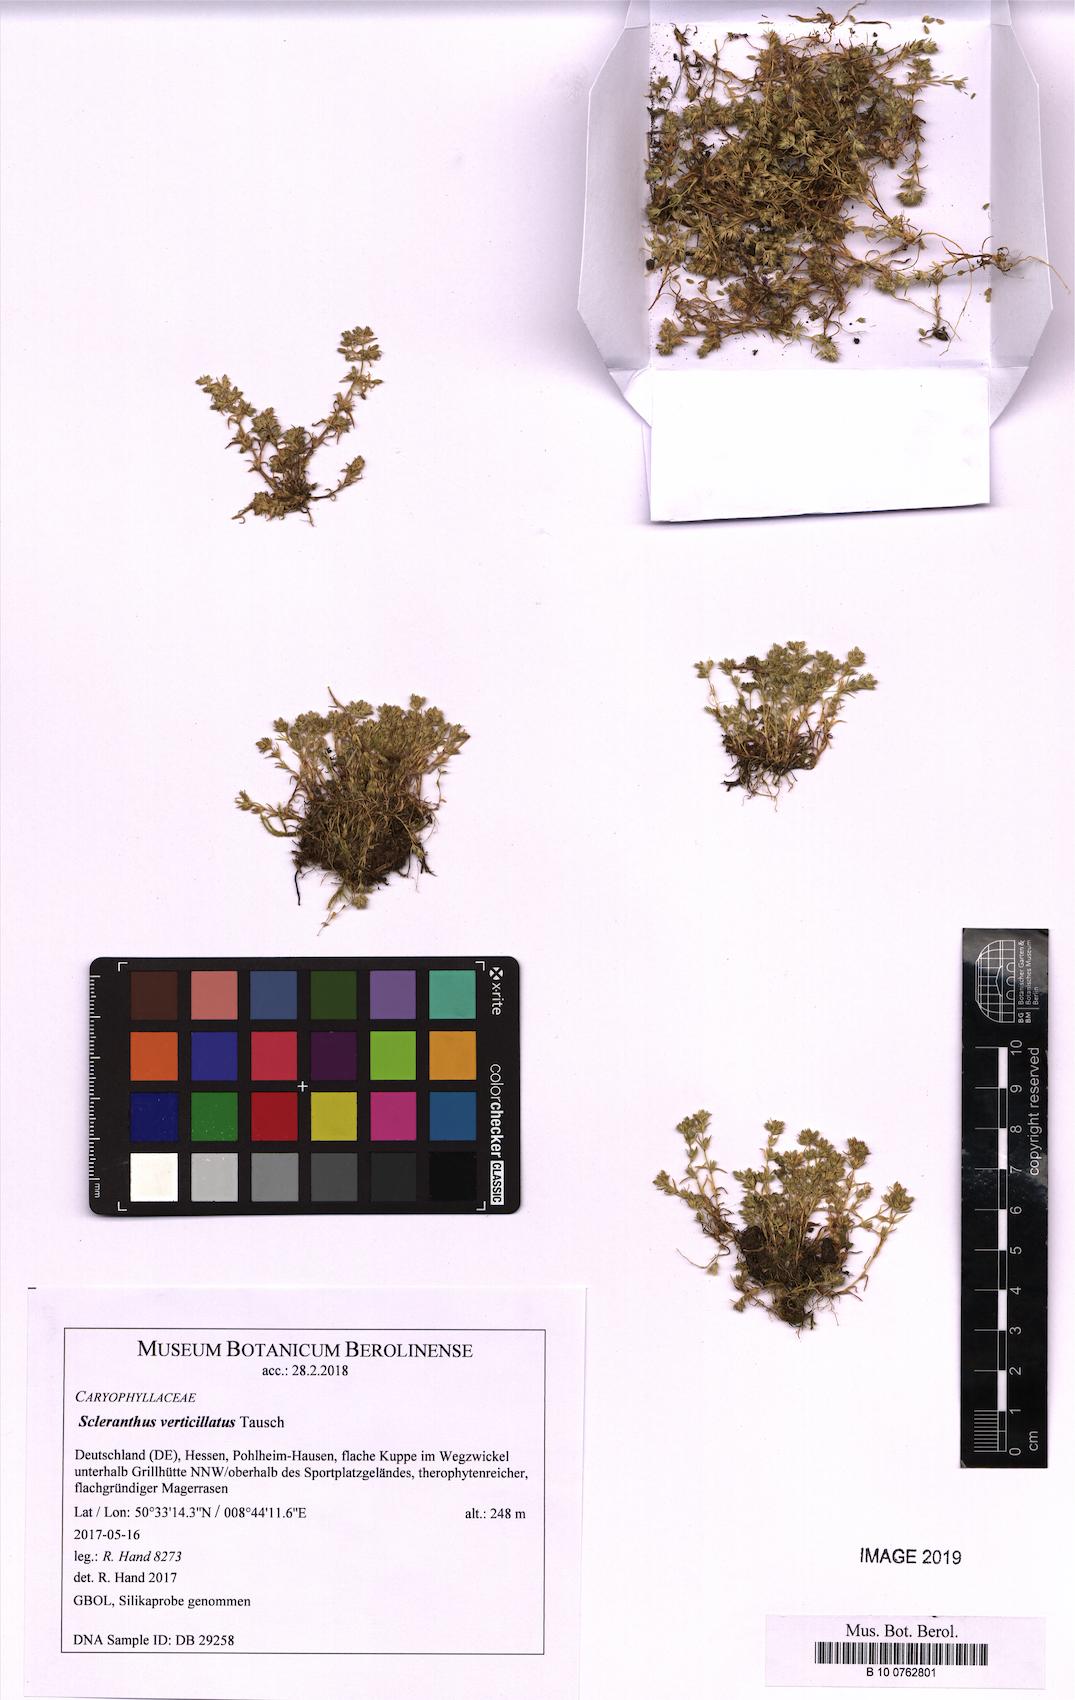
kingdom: Plantae
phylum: Tracheophyta
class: Magnoliopsida
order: Caryophyllales
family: Caryophyllaceae
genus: Scleranthus
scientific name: Scleranthus verticillatus
